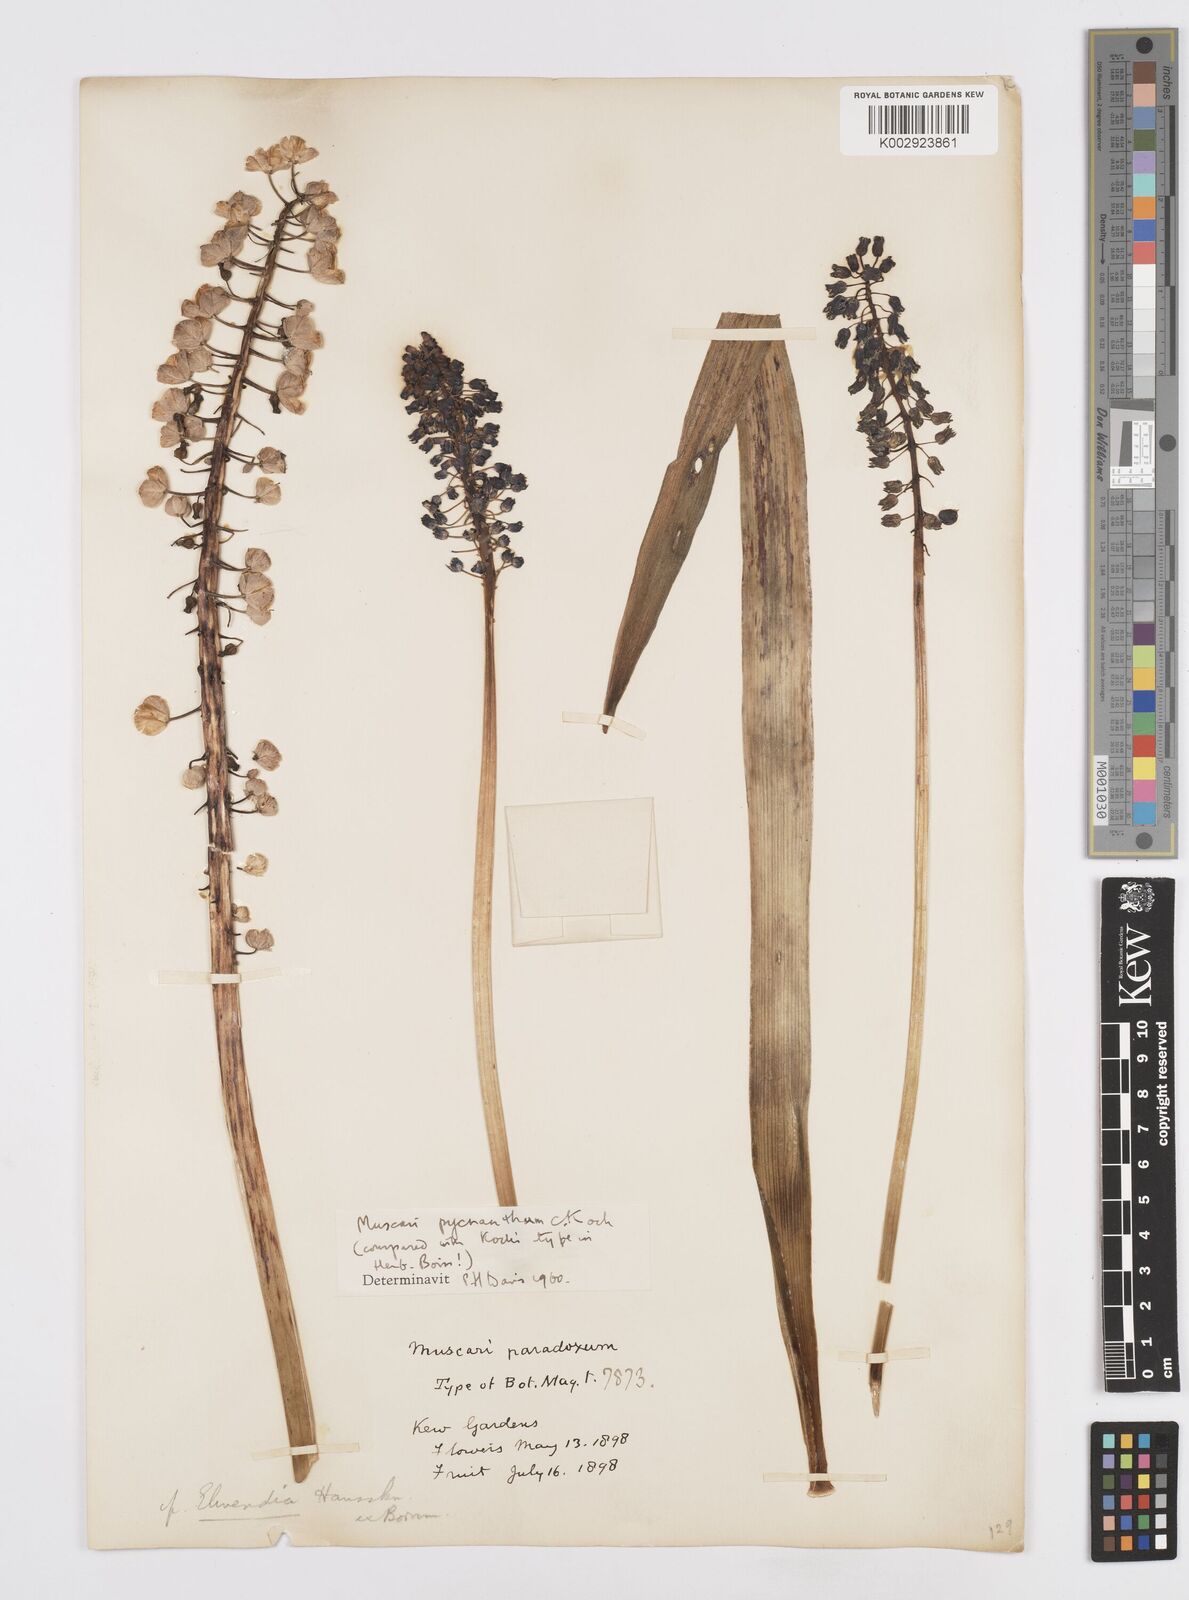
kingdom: Plantae
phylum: Tracheophyta
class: Liliopsida
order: Asparagales
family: Asparagaceae
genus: Muscari
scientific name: Muscari
